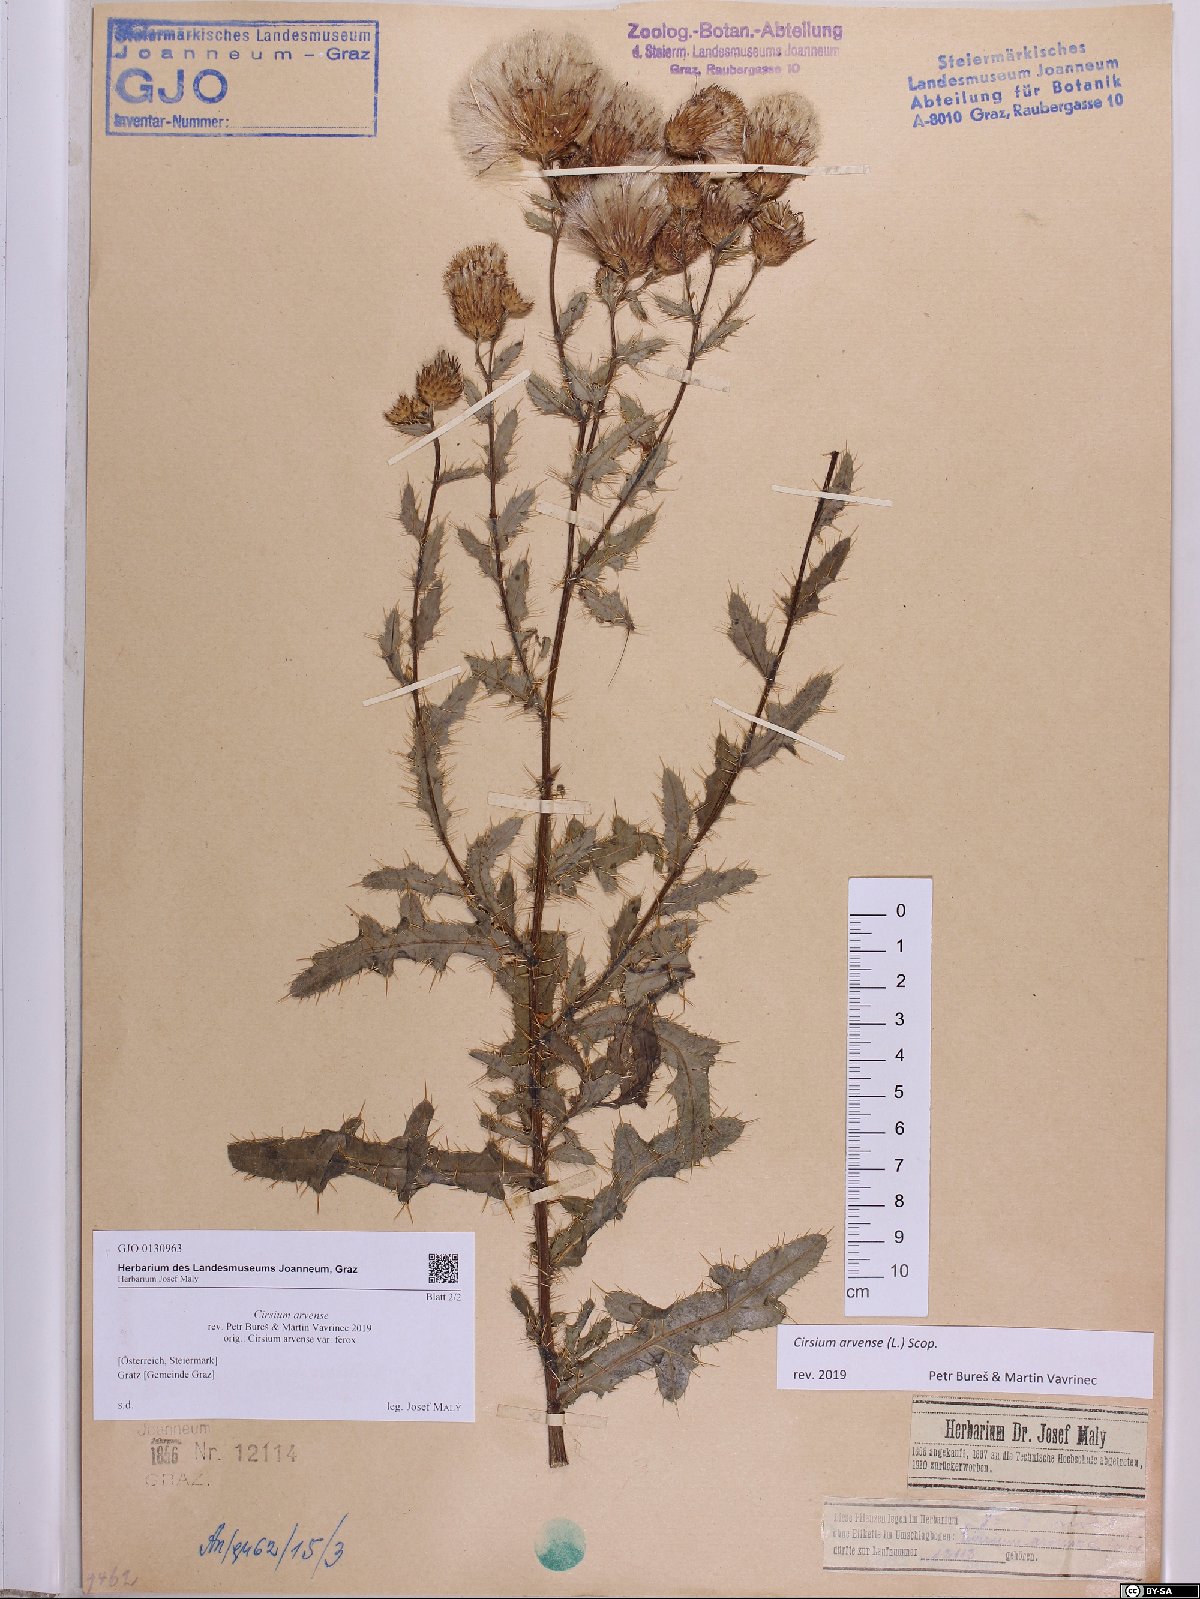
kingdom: Plantae
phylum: Tracheophyta
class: Magnoliopsida
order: Asterales
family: Asteraceae
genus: Cirsium
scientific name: Cirsium arvense
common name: Creeping thistle
